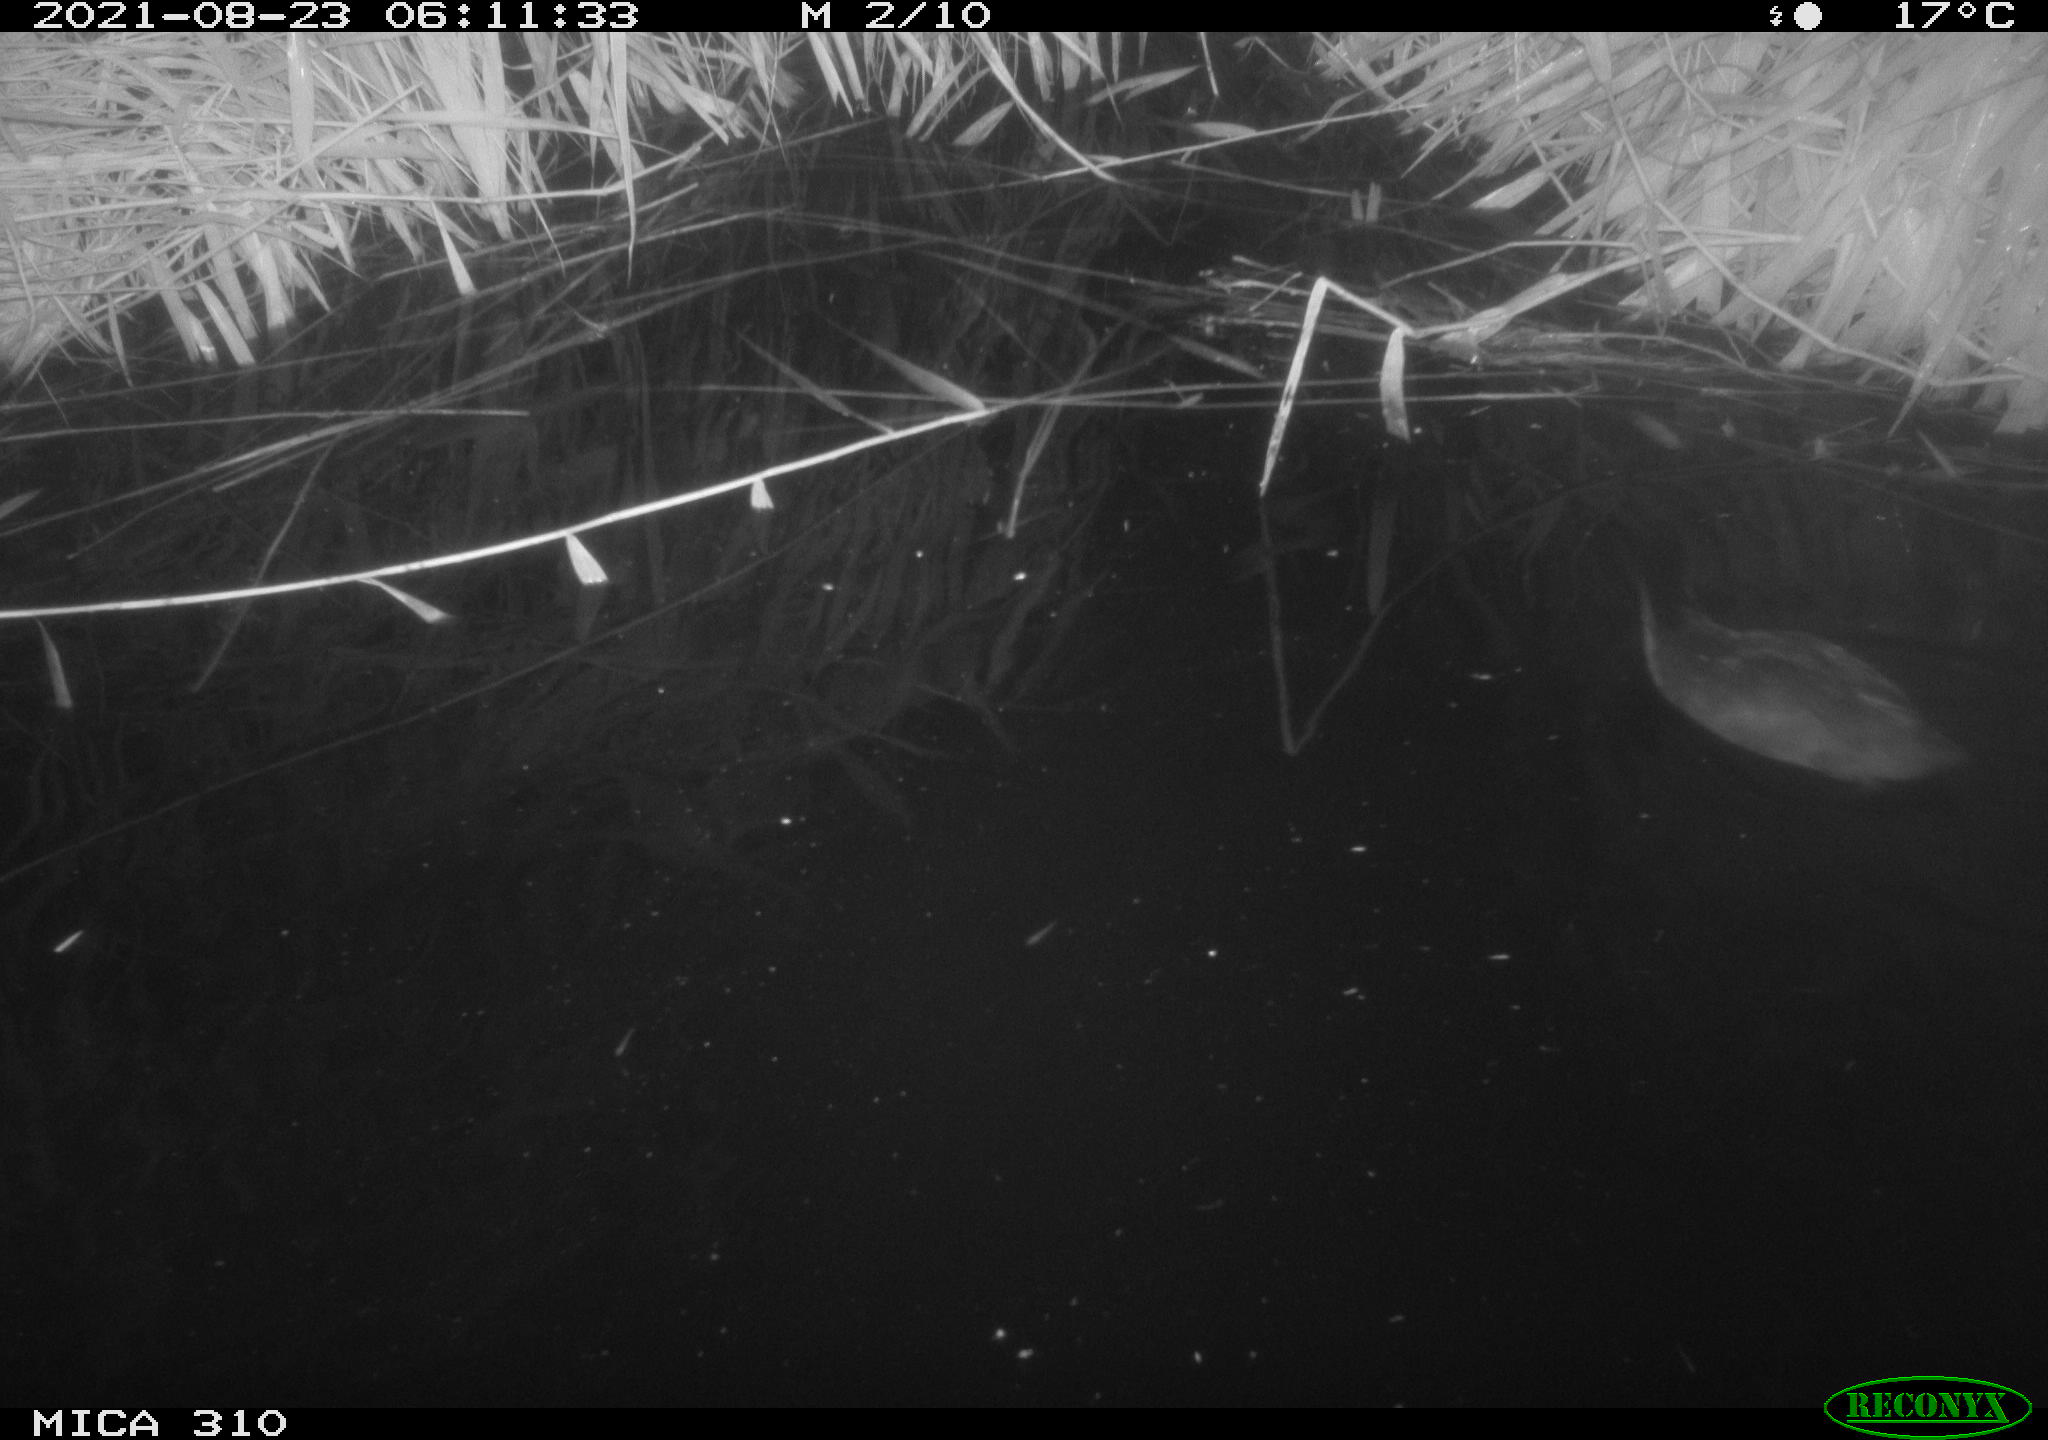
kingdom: Animalia
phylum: Chordata
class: Aves
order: Gruiformes
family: Rallidae
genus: Fulica
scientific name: Fulica atra
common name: Eurasian coot
